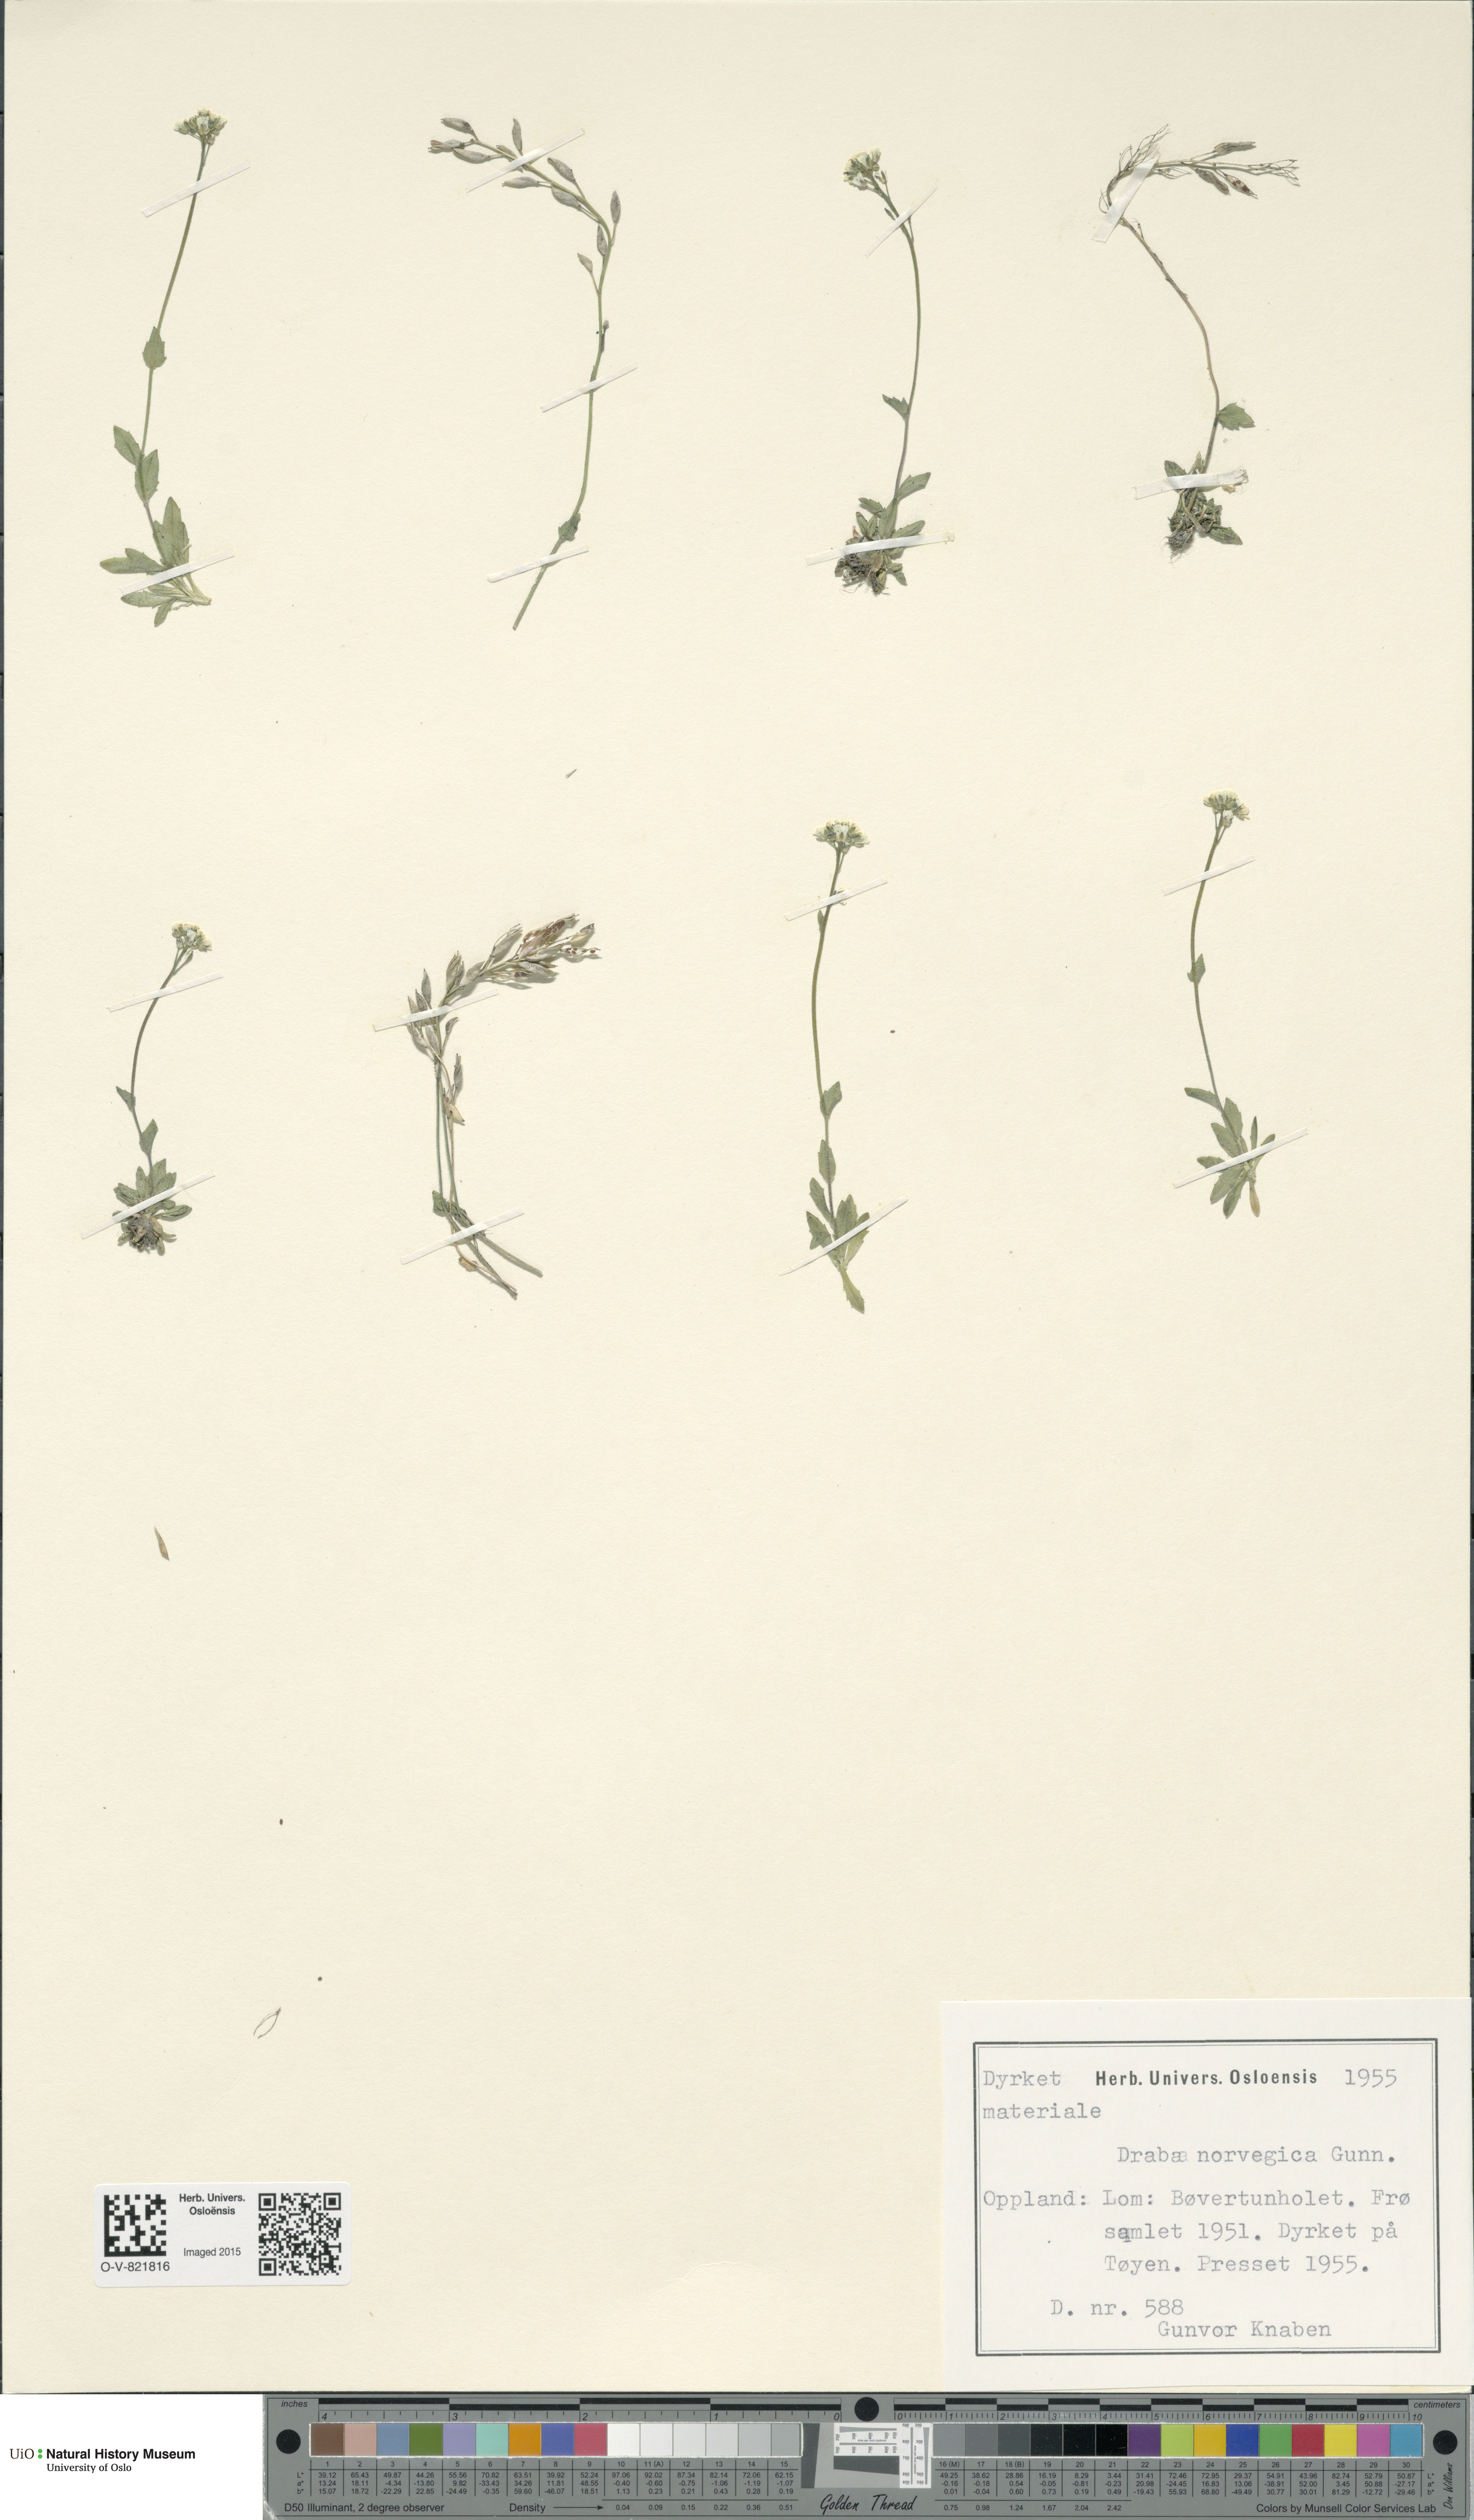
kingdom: Plantae
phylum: Tracheophyta
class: Magnoliopsida
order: Brassicales
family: Brassicaceae
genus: Draba
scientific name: Draba norvegica
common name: Rock whitlowgrass
